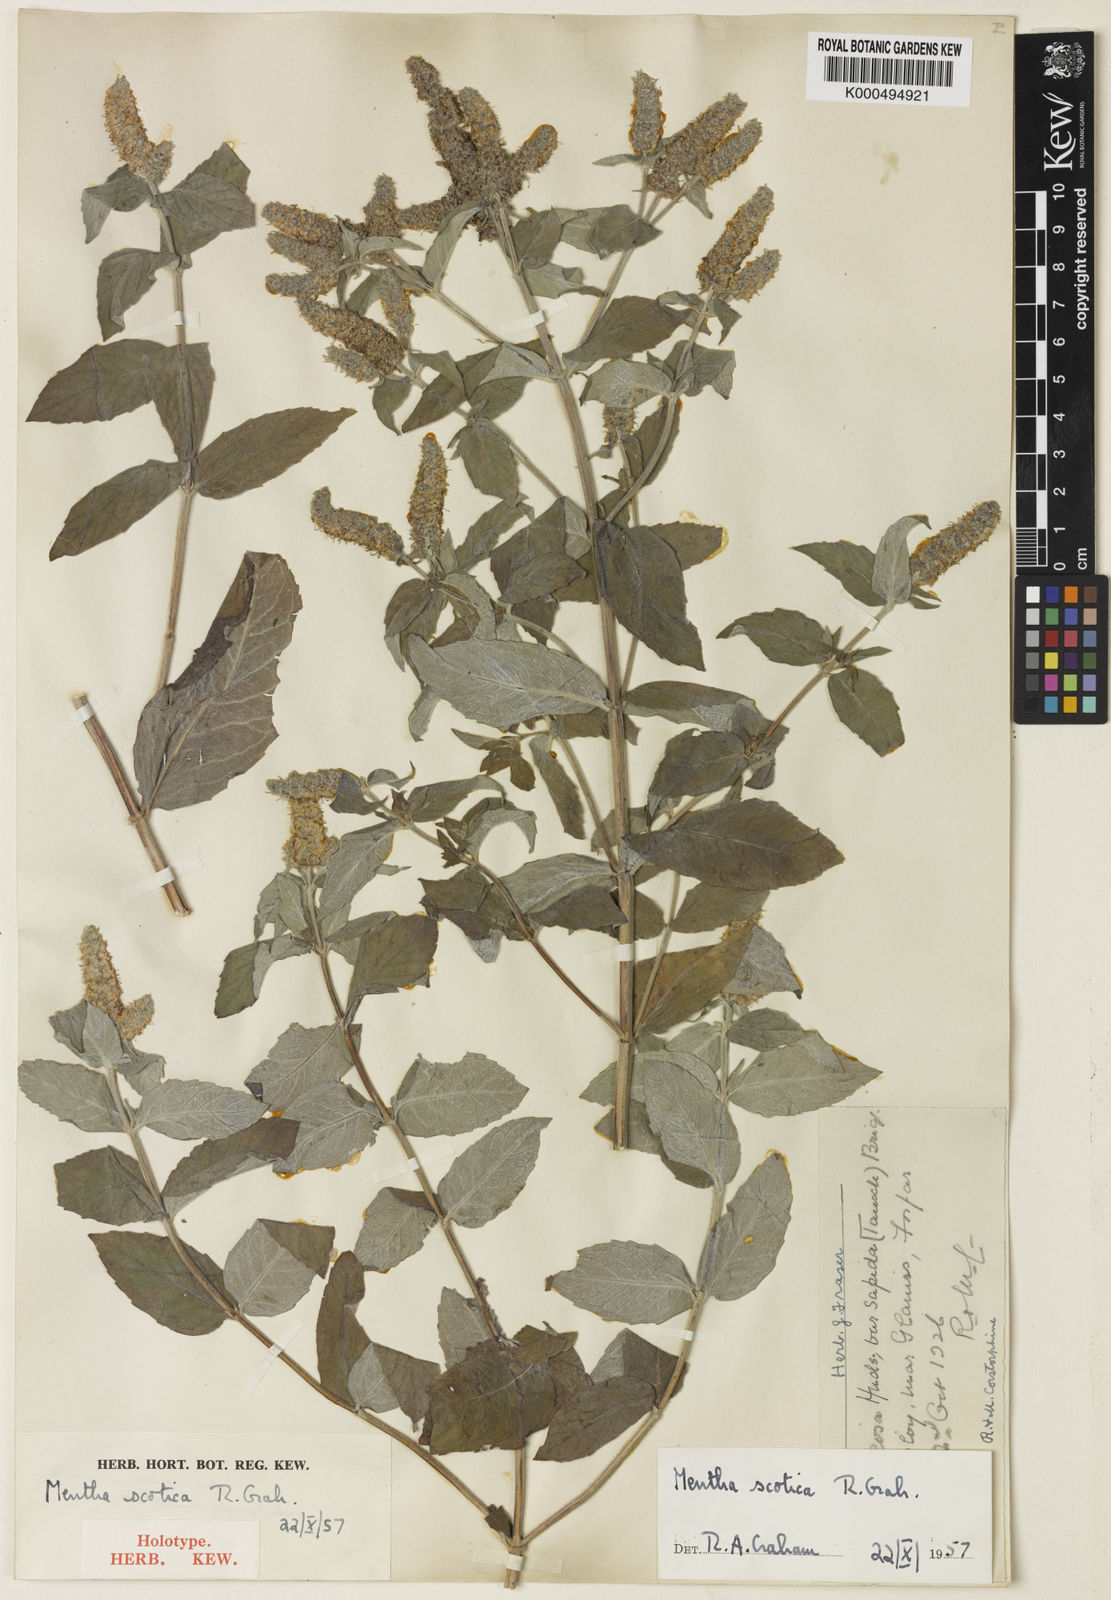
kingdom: Plantae
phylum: Tracheophyta
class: Magnoliopsida
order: Lamiales
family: Lamiaceae
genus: Mentha
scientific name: Mentha spicata
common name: Spearmint
